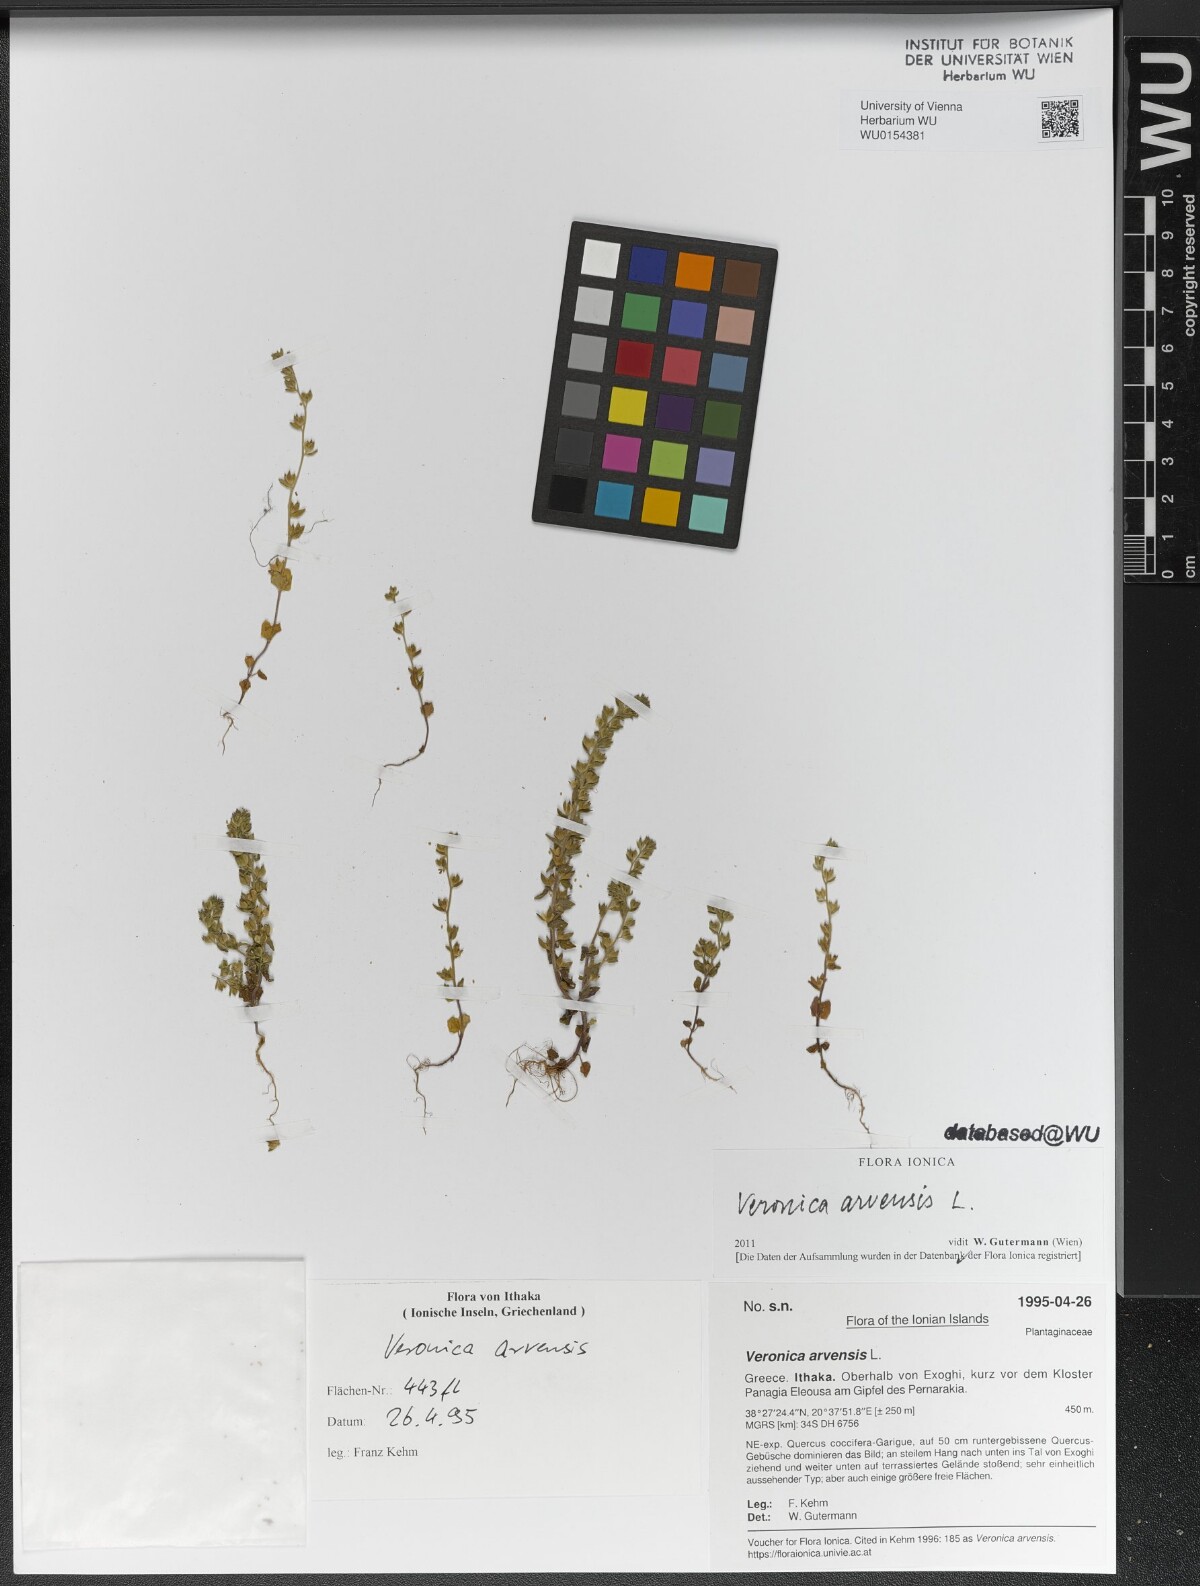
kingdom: Plantae
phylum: Tracheophyta
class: Magnoliopsida
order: Lamiales
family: Plantaginaceae
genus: Veronica
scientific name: Veronica arvensis
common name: Corn speedwell
